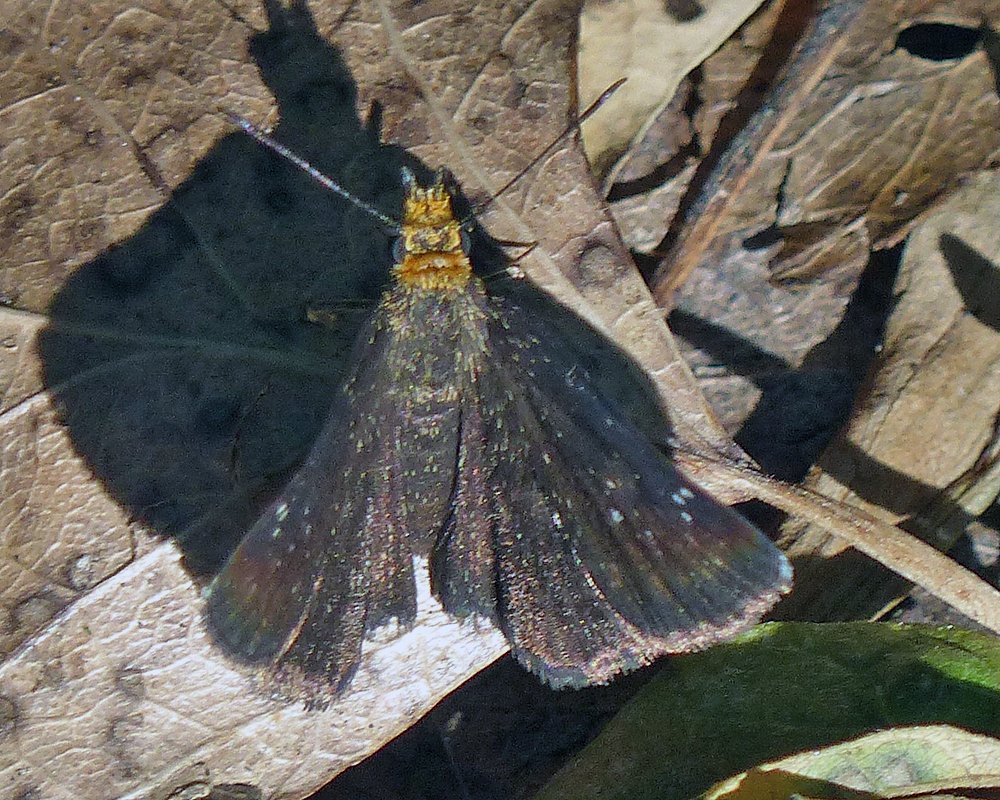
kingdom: Animalia
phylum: Arthropoda
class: Insecta
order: Lepidoptera
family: Hesperiidae
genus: Staphylus
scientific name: Staphylus ceos
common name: Golden-headed Scallopwing
